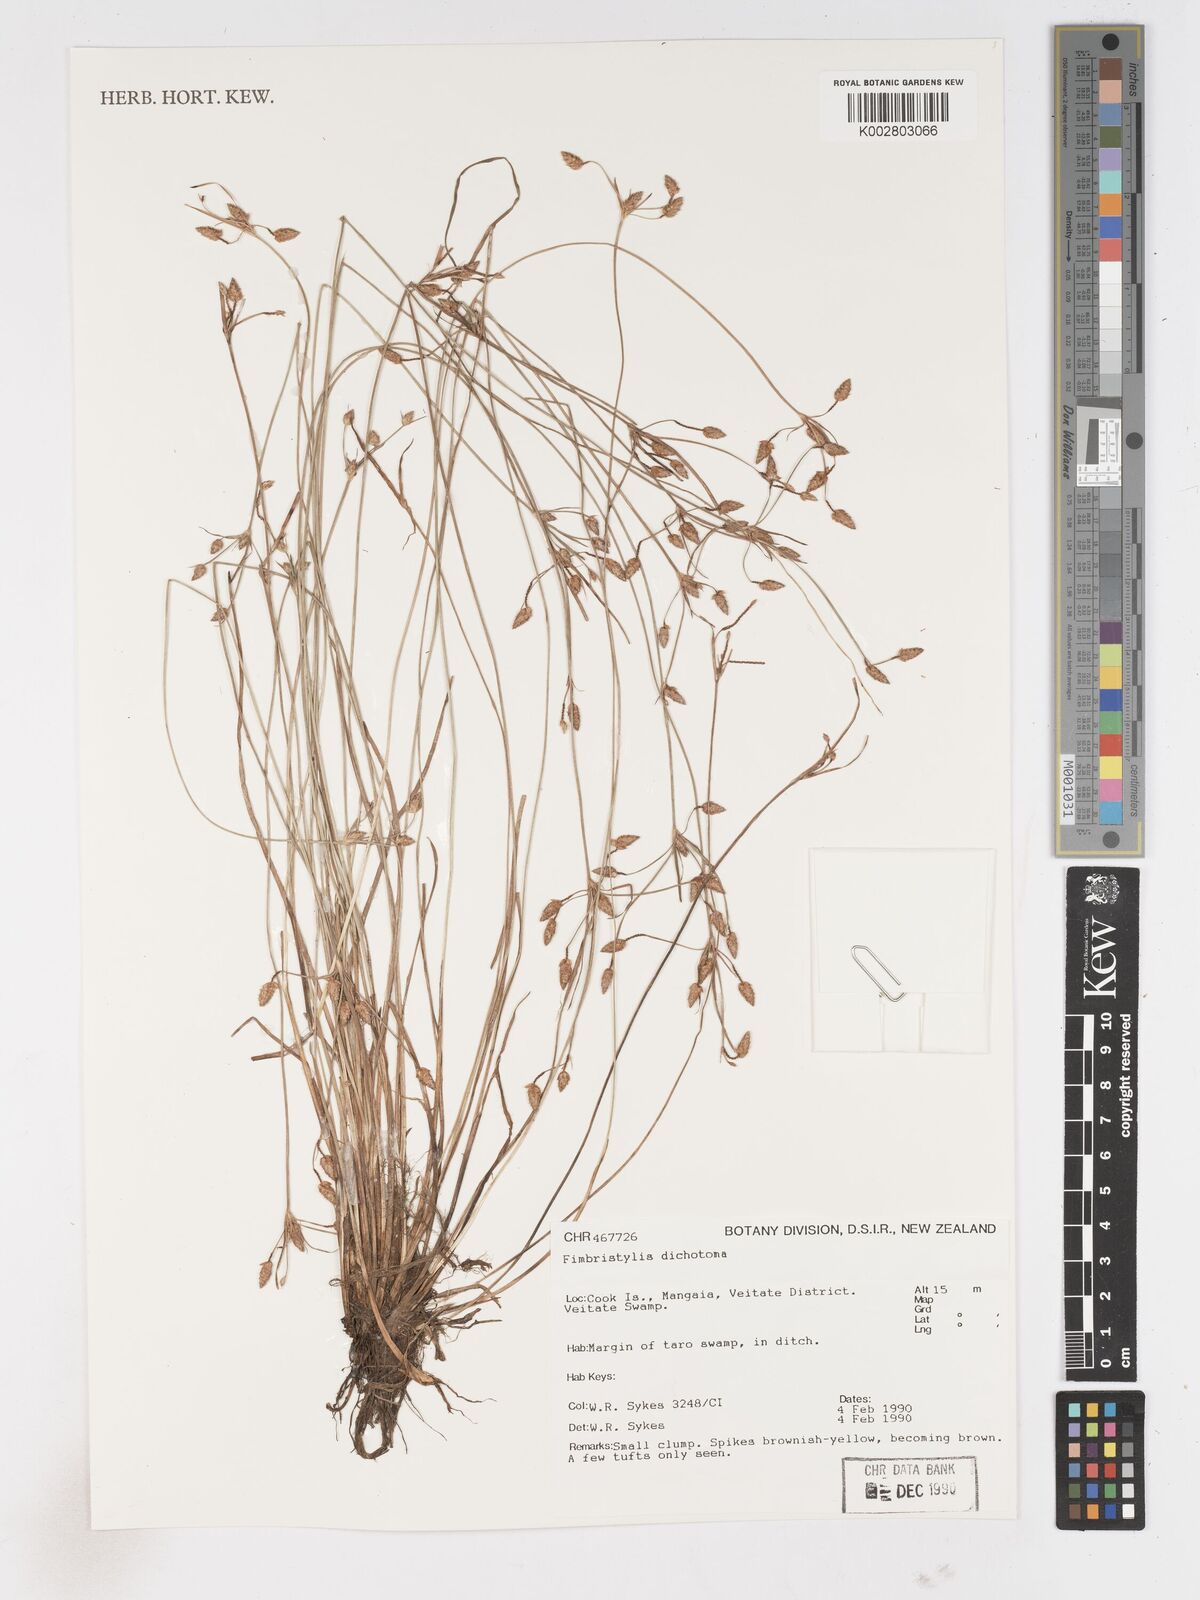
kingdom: Plantae
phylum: Tracheophyta
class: Liliopsida
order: Poales
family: Cyperaceae
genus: Fimbristylis
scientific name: Fimbristylis dichotoma
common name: Forked fimbry
